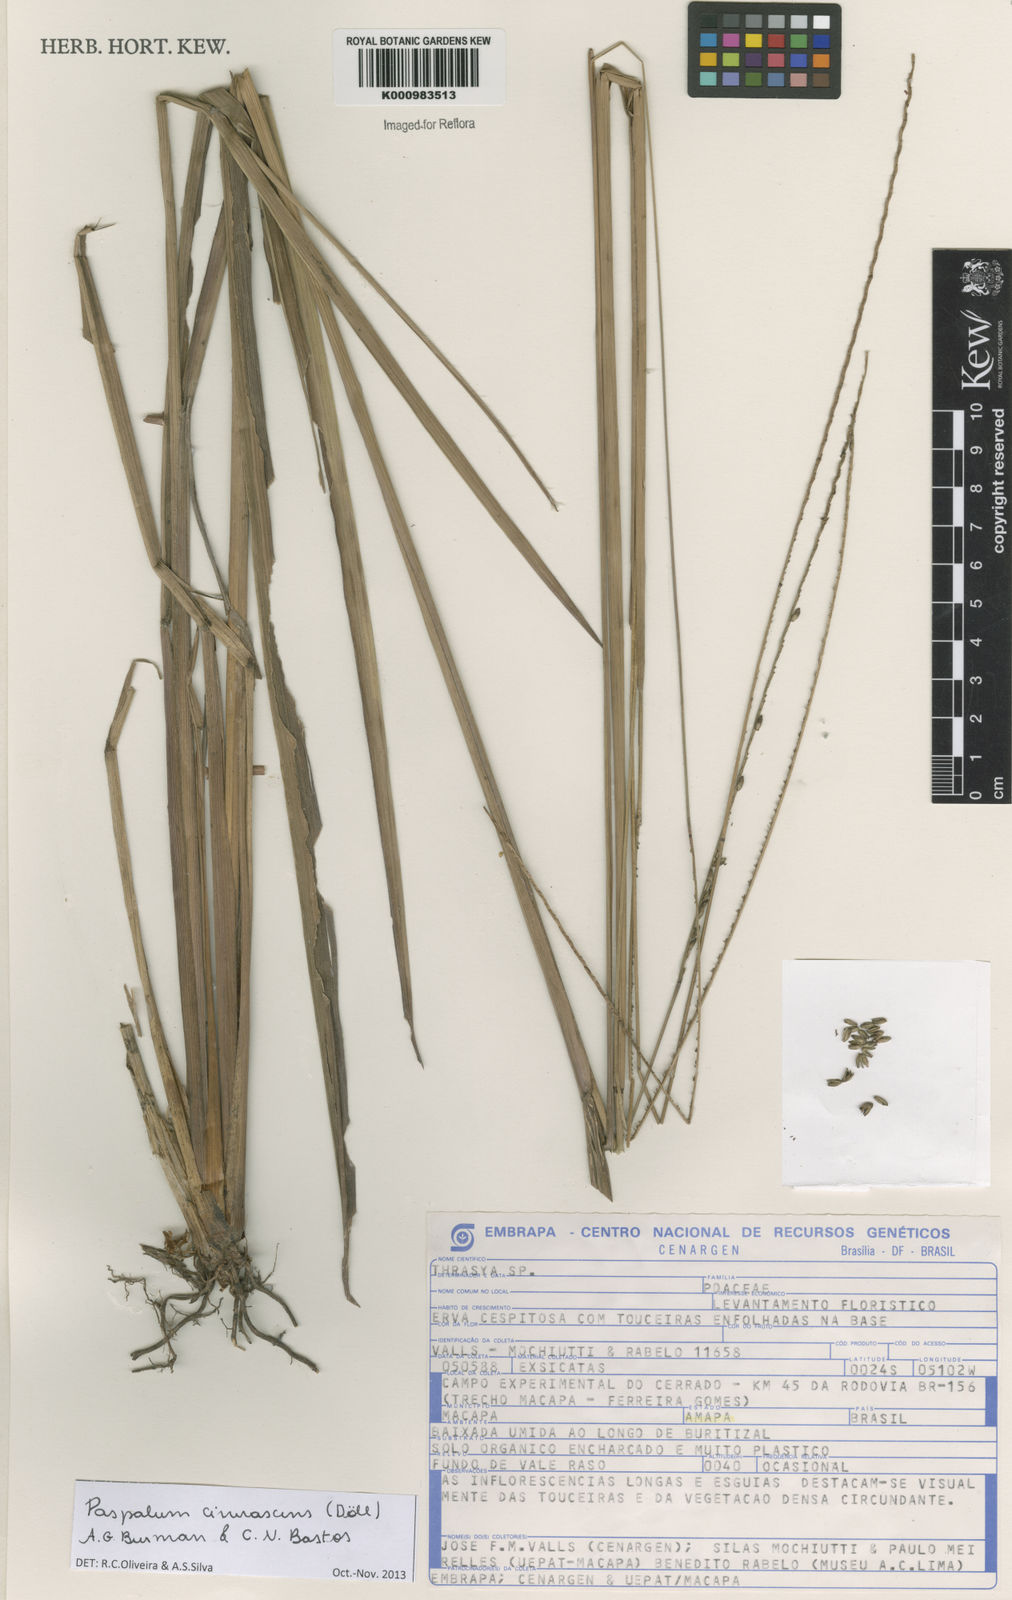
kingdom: Plantae
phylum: Tracheophyta
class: Liliopsida
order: Poales
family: Poaceae
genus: Paspalum
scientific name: Paspalum
